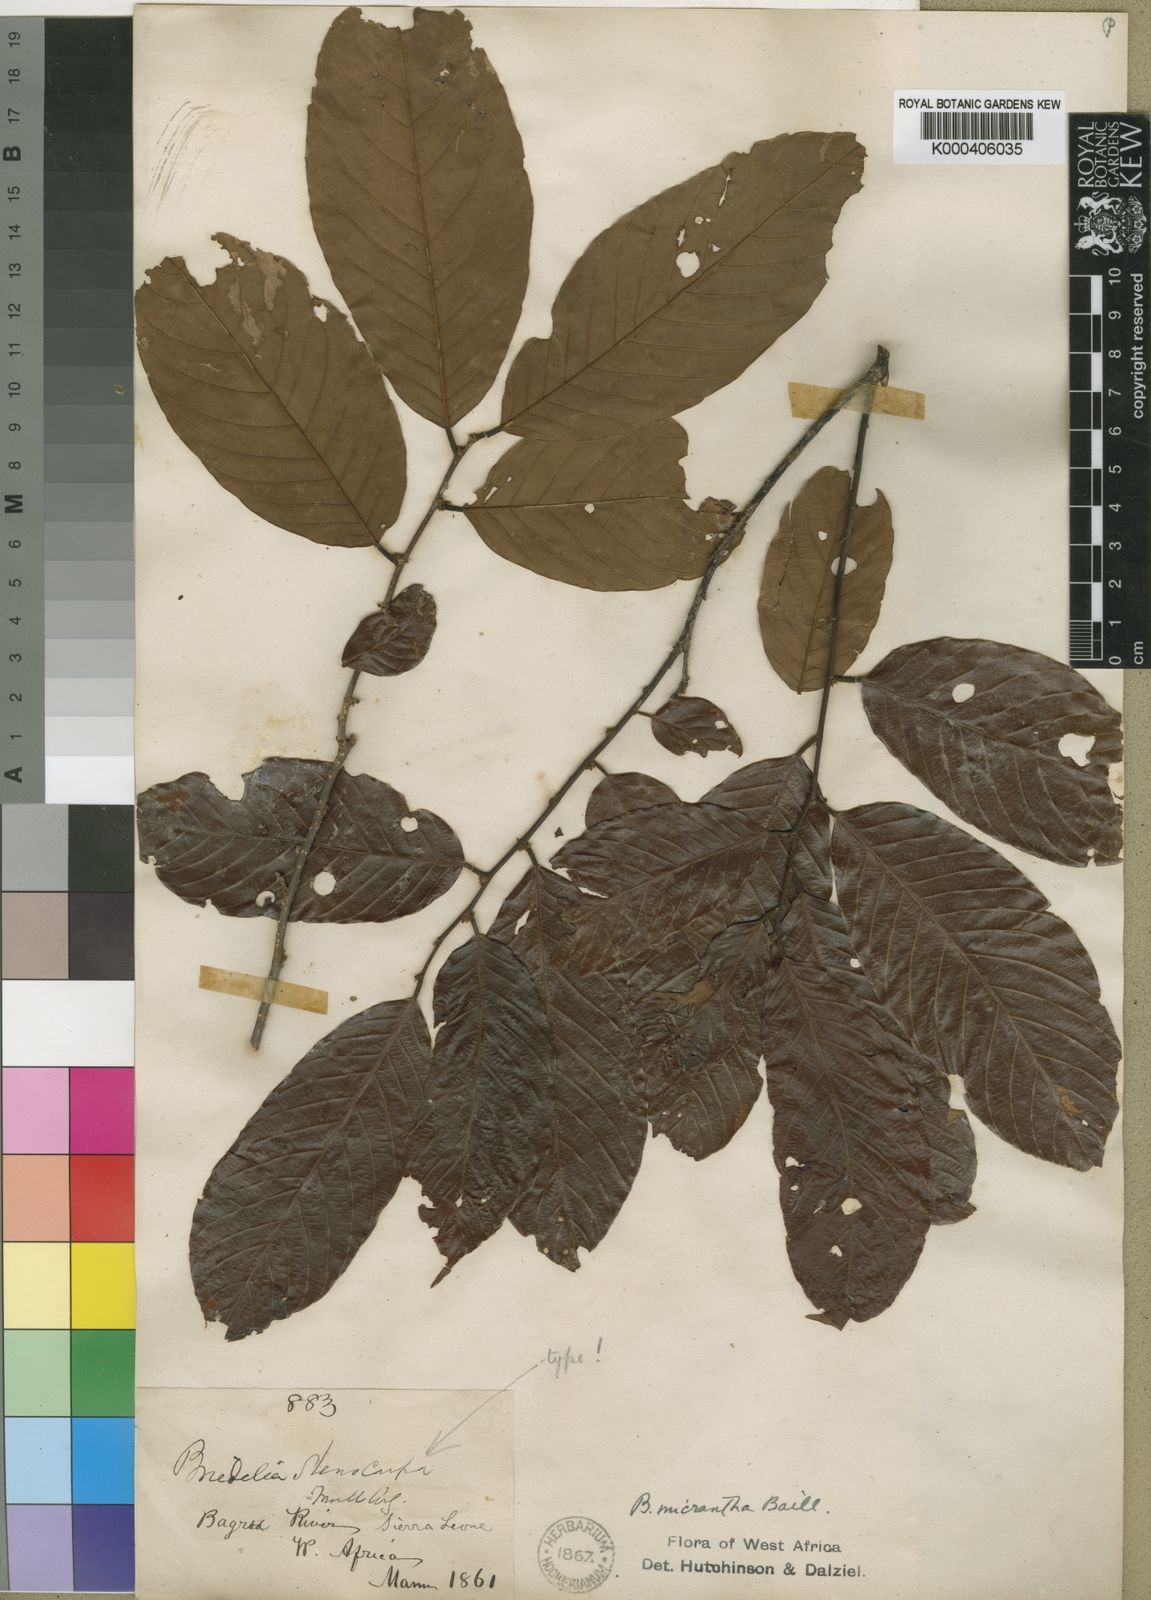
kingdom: Plantae
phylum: Tracheophyta
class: Magnoliopsida
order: Malpighiales
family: Phyllanthaceae
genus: Bridelia
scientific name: Bridelia micrantha
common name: Bridelia
